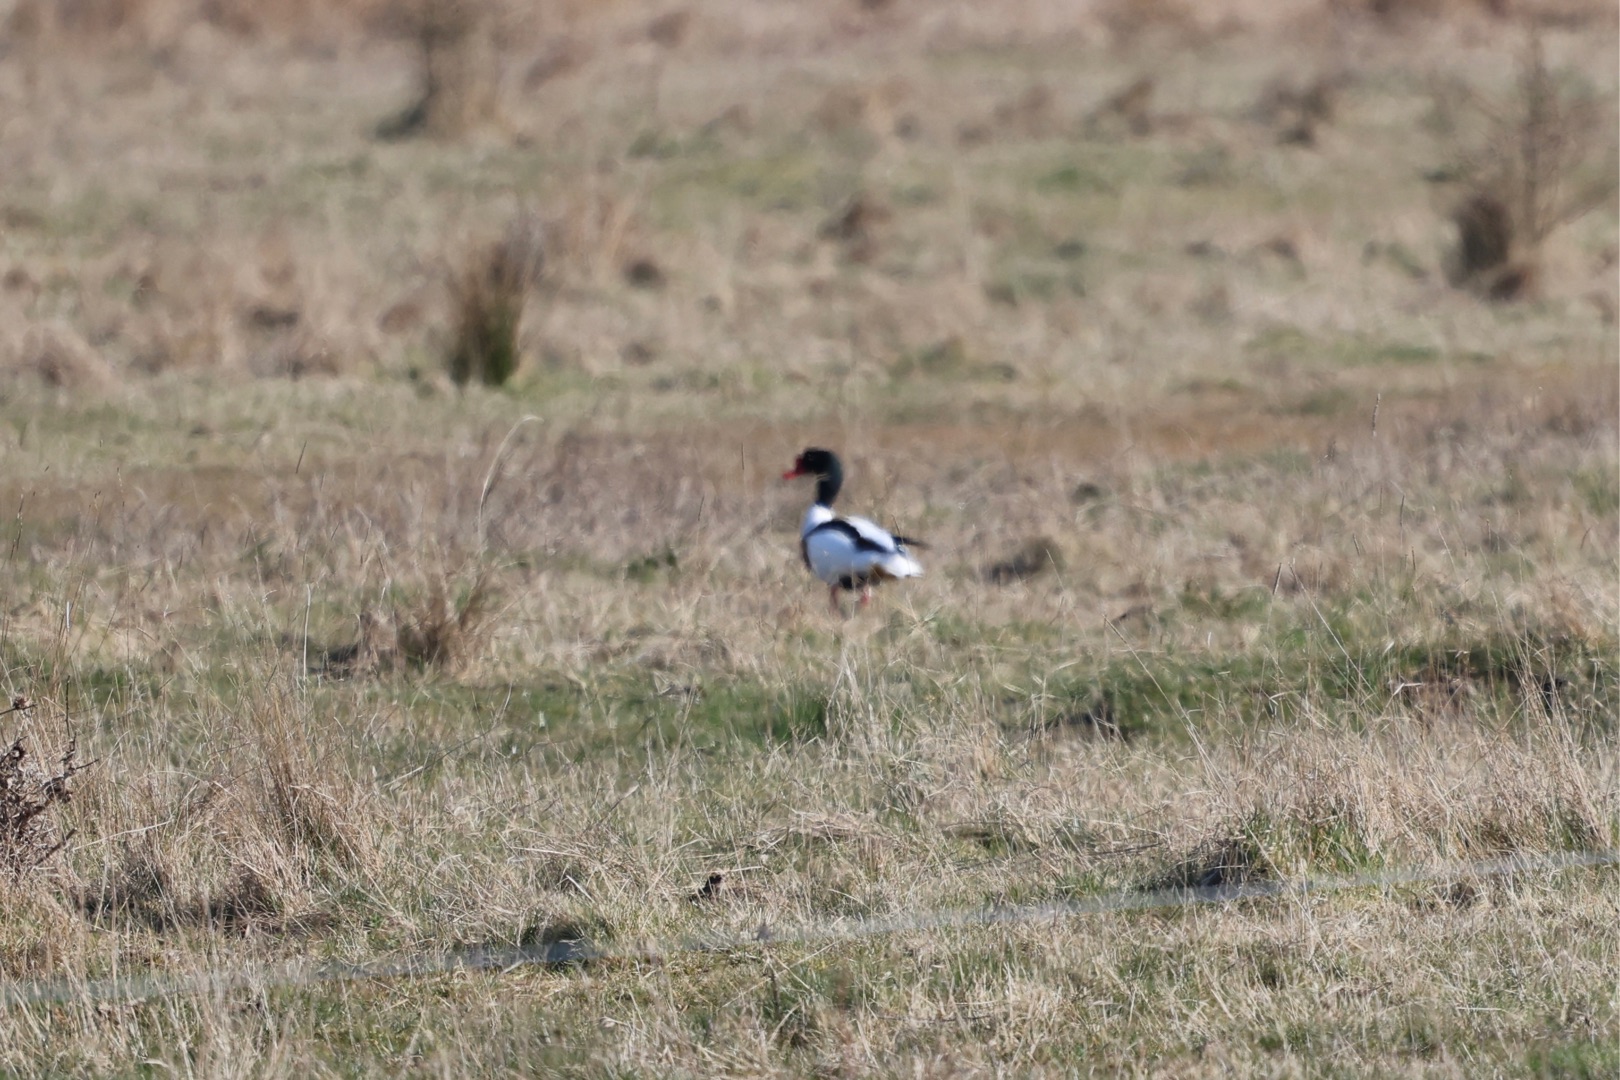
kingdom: Animalia
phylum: Chordata
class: Aves
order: Anseriformes
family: Anatidae
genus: Tadorna
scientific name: Tadorna tadorna
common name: Gravand
